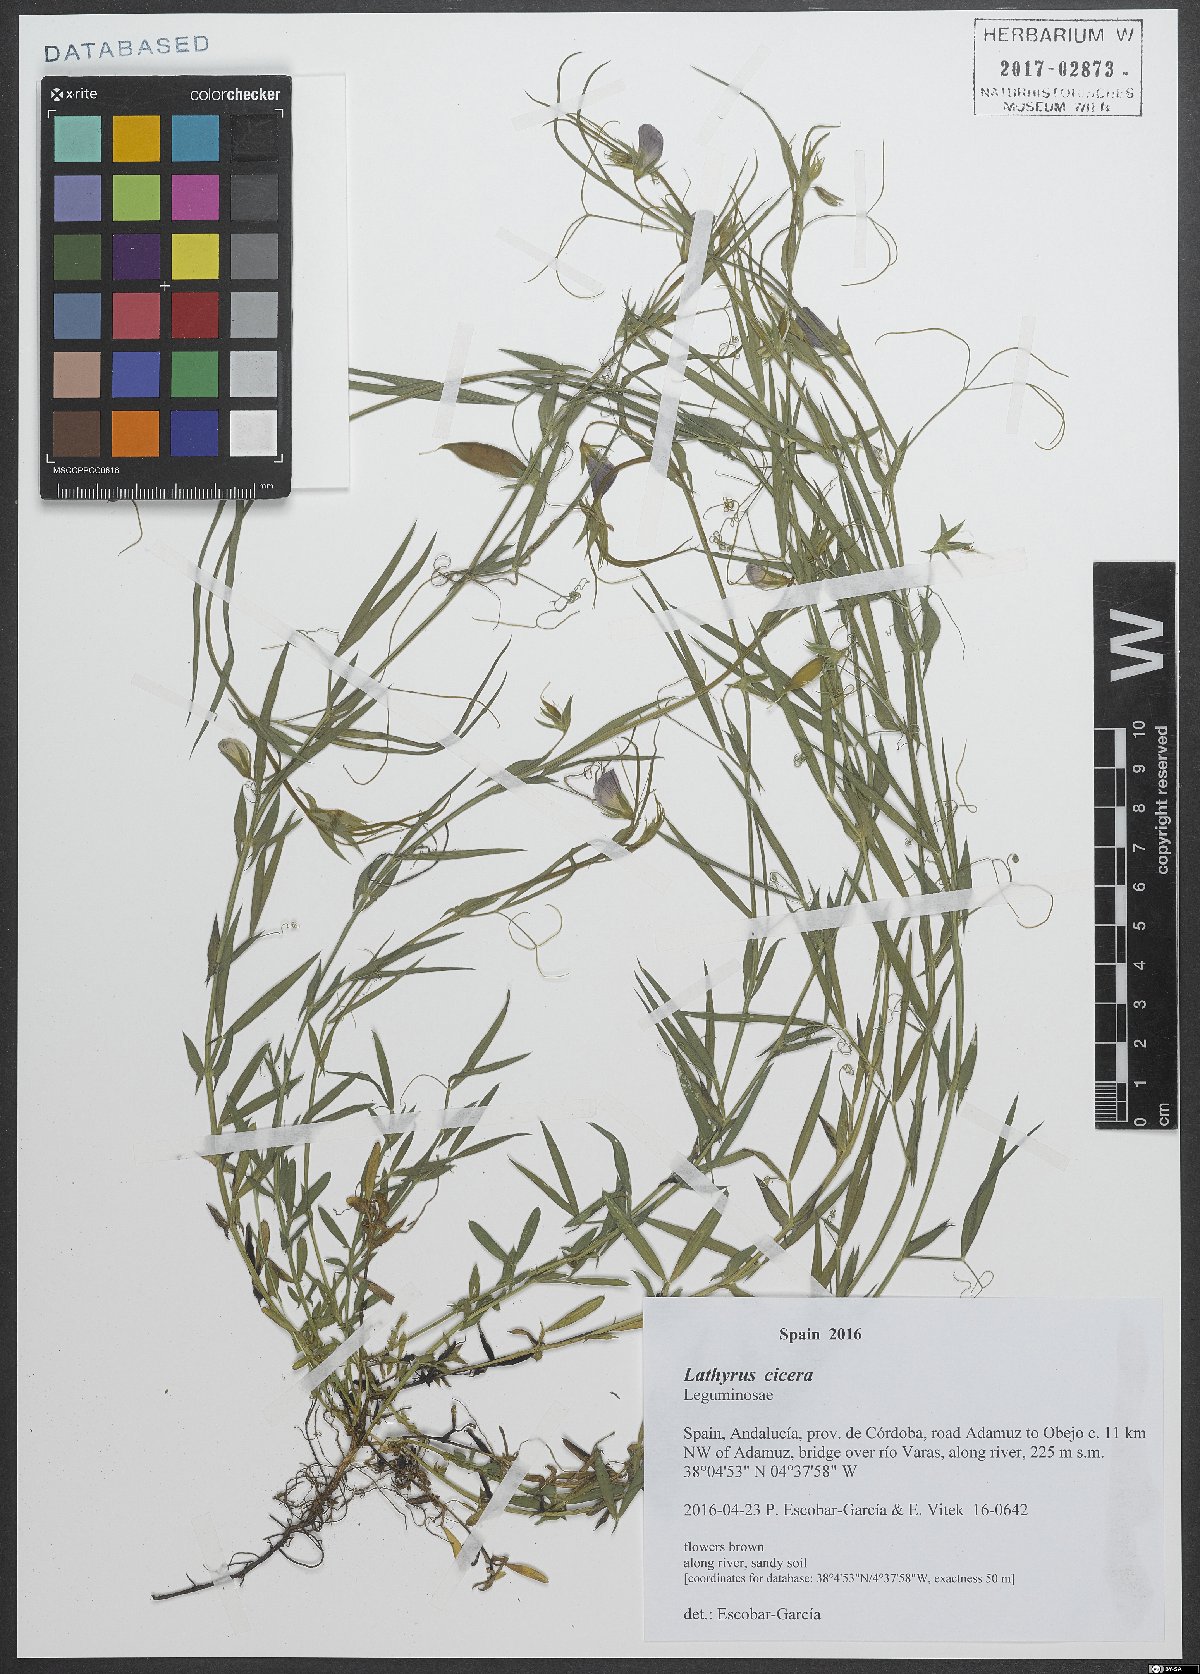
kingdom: Plantae
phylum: Tracheophyta
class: Magnoliopsida
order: Fabales
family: Fabaceae
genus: Lathyrus
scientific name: Lathyrus cicera
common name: Red vetchling
